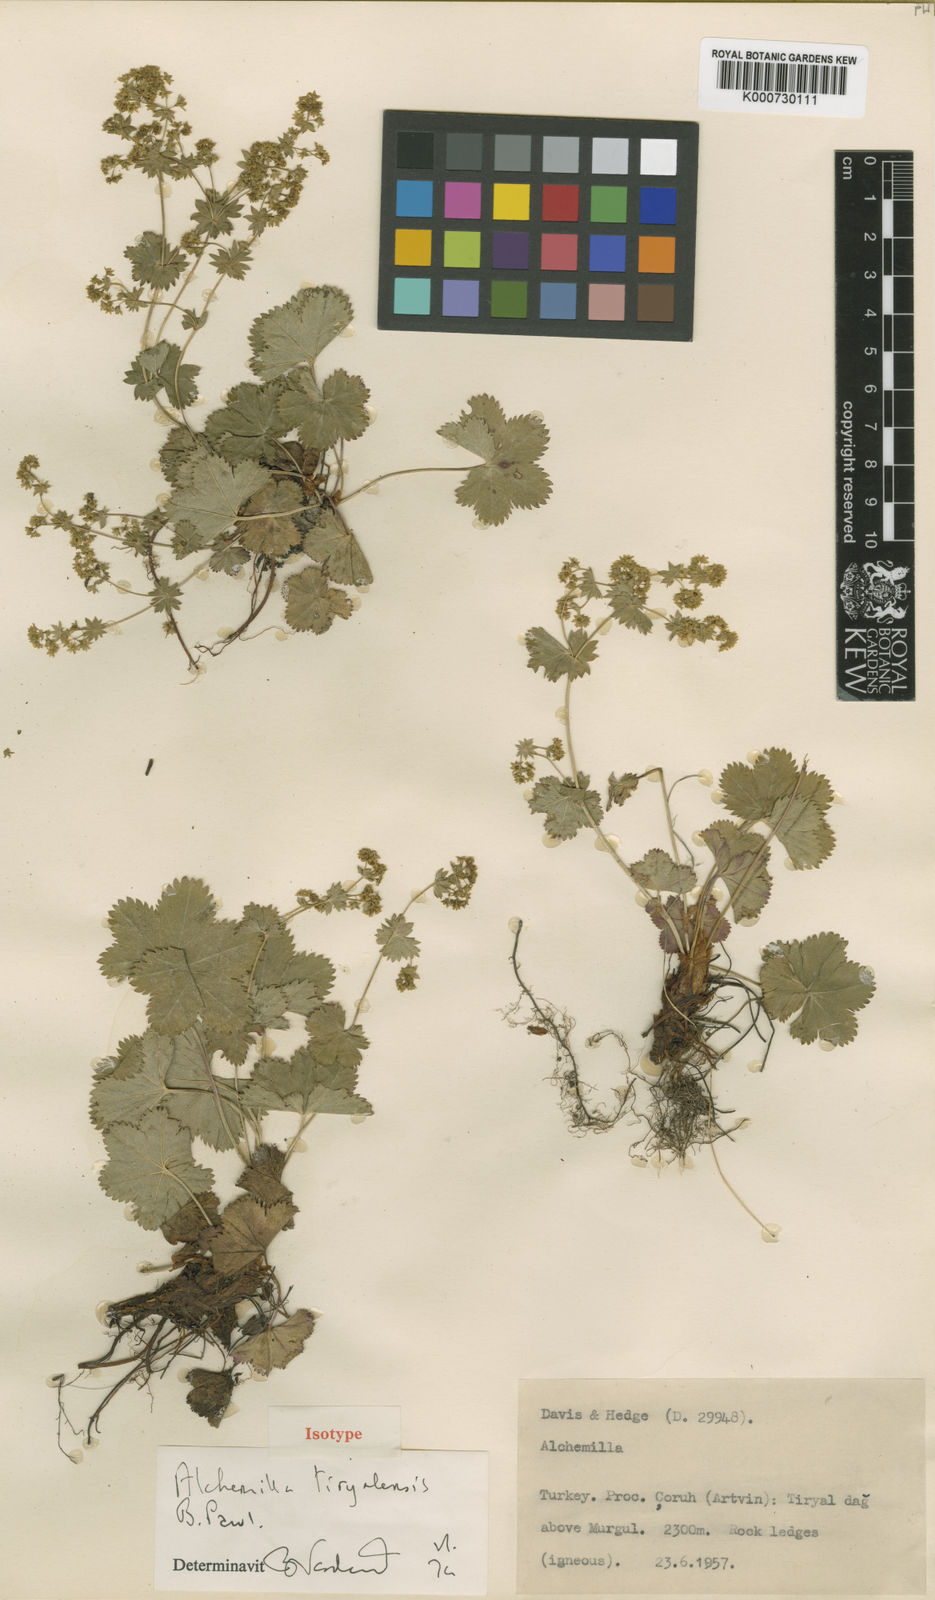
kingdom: Plantae
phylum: Tracheophyta
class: Magnoliopsida
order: Rosales
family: Rosaceae
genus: Alchemilla
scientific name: Alchemilla tiryalensis
